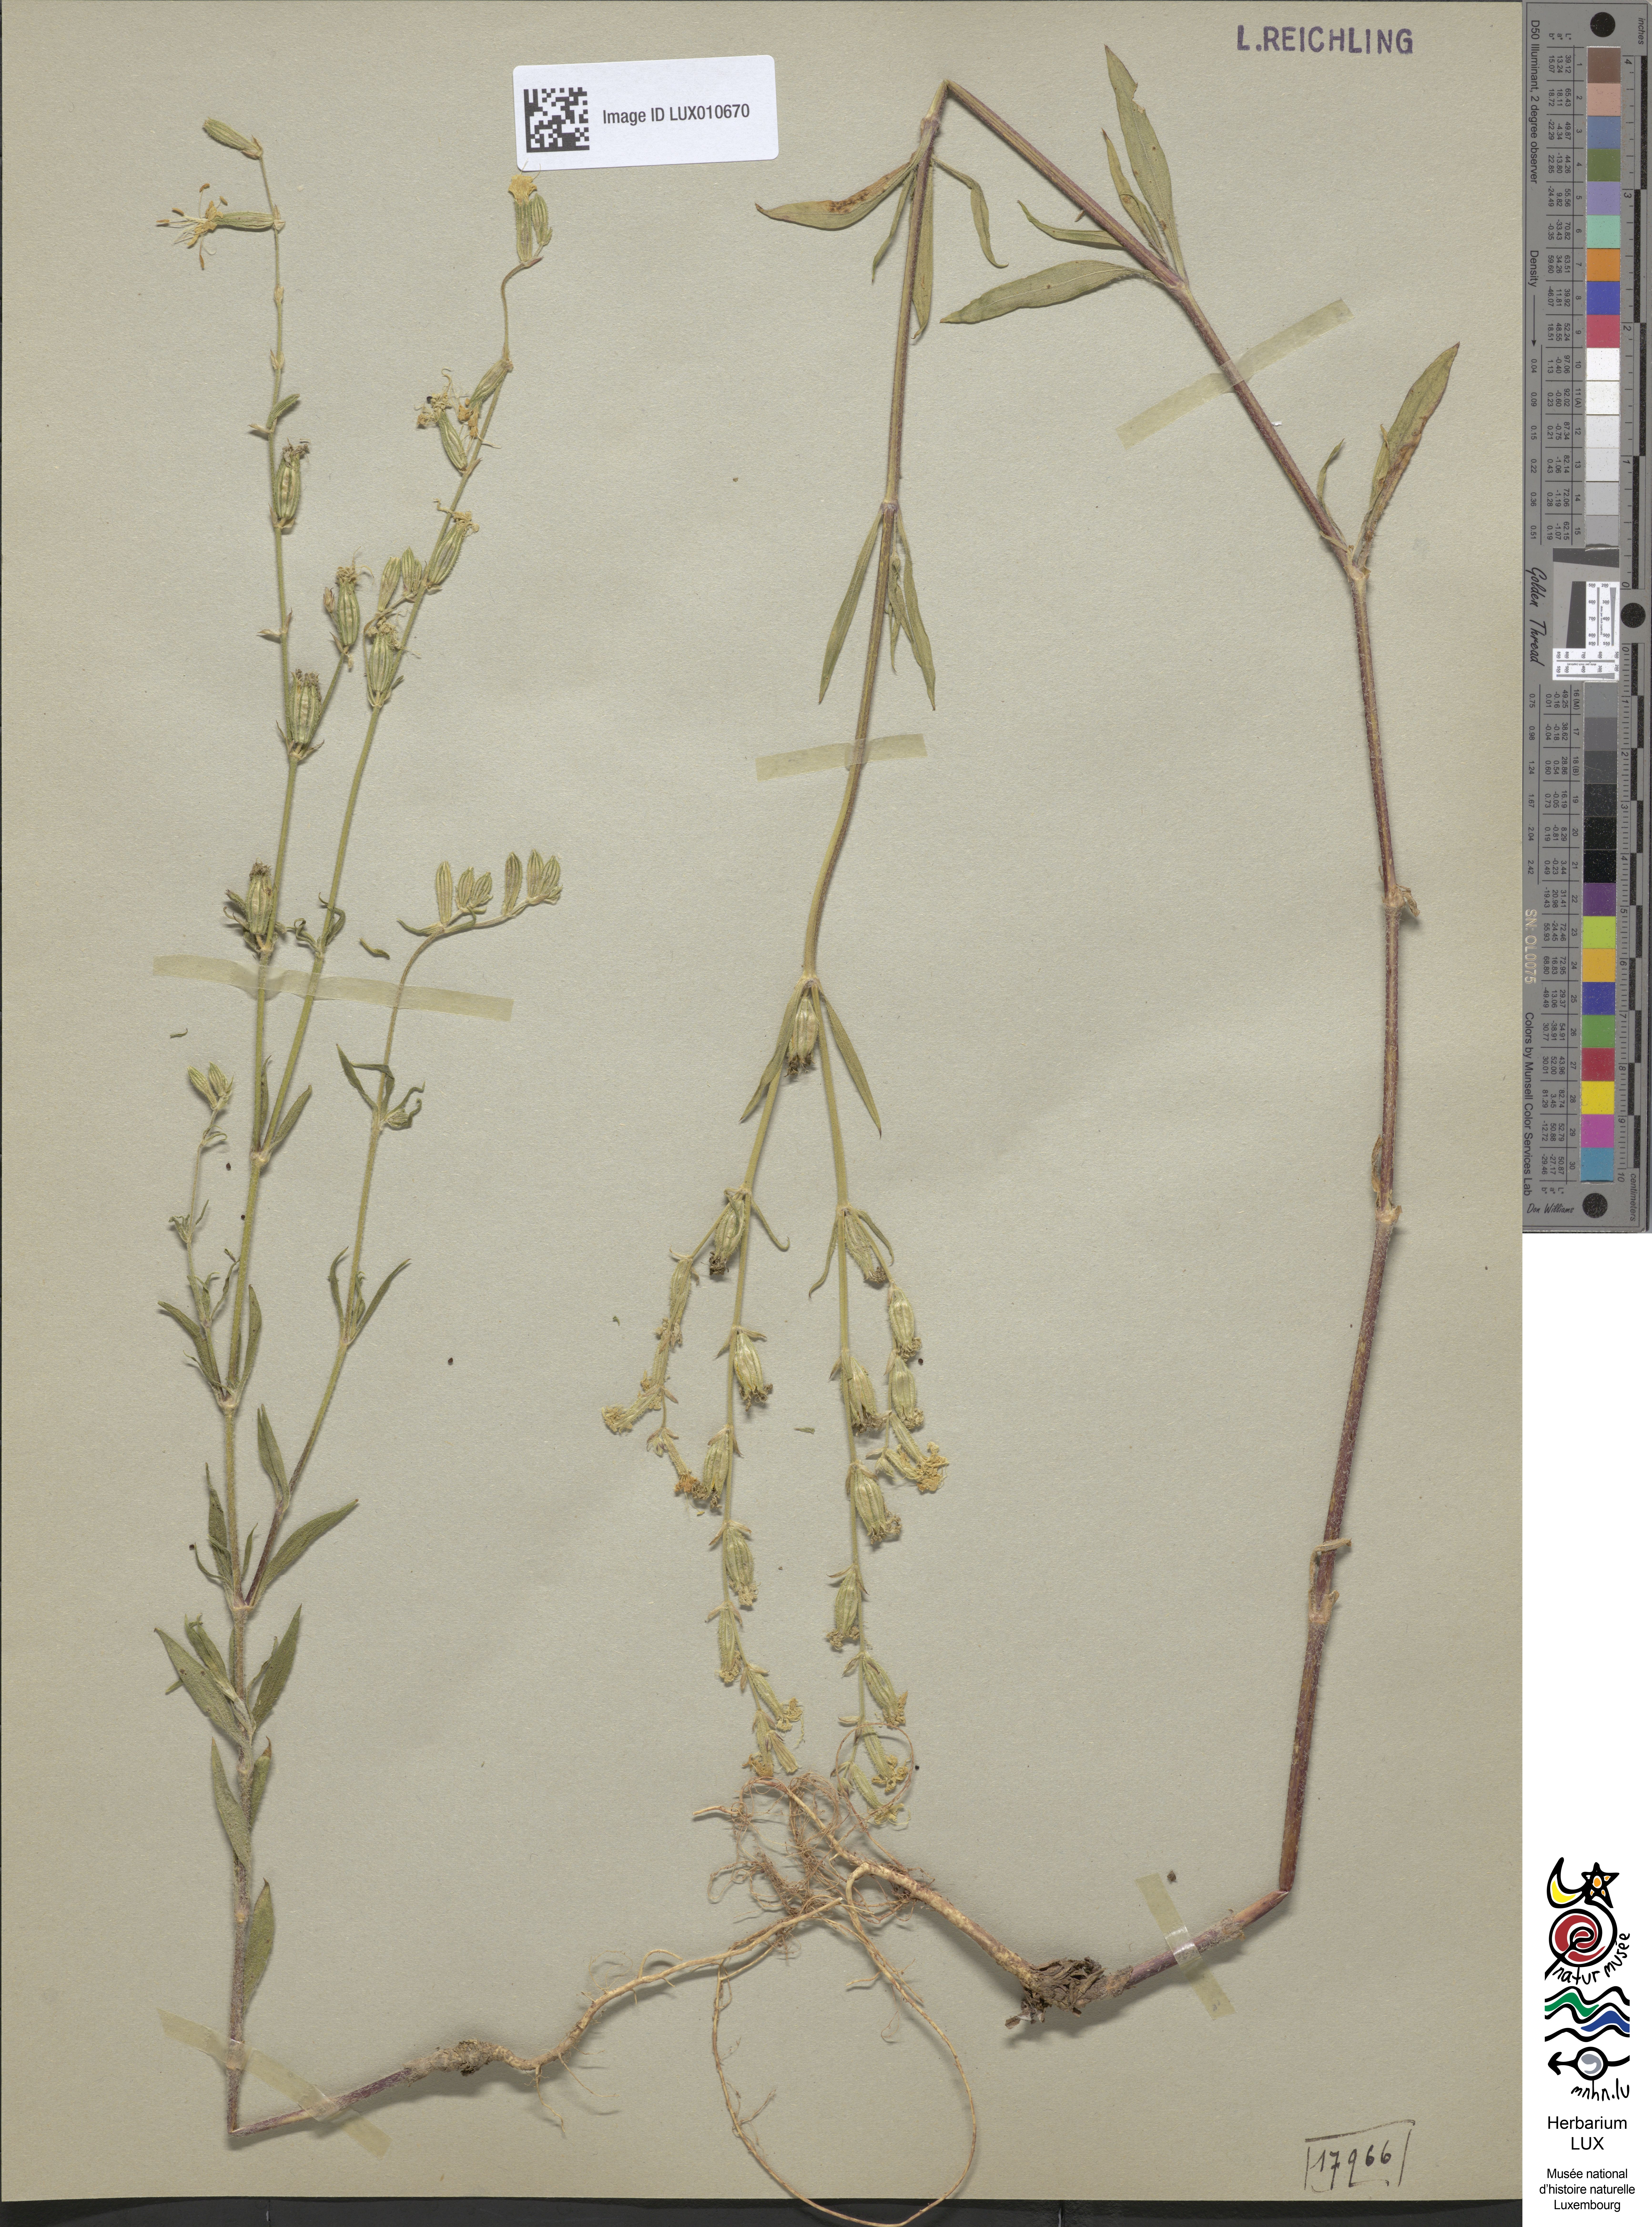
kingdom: Plantae
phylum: Tracheophyta
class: Magnoliopsida
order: Caryophyllales
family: Caryophyllaceae
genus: Silene
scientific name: Silene dichotoma
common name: Forked catchfly
